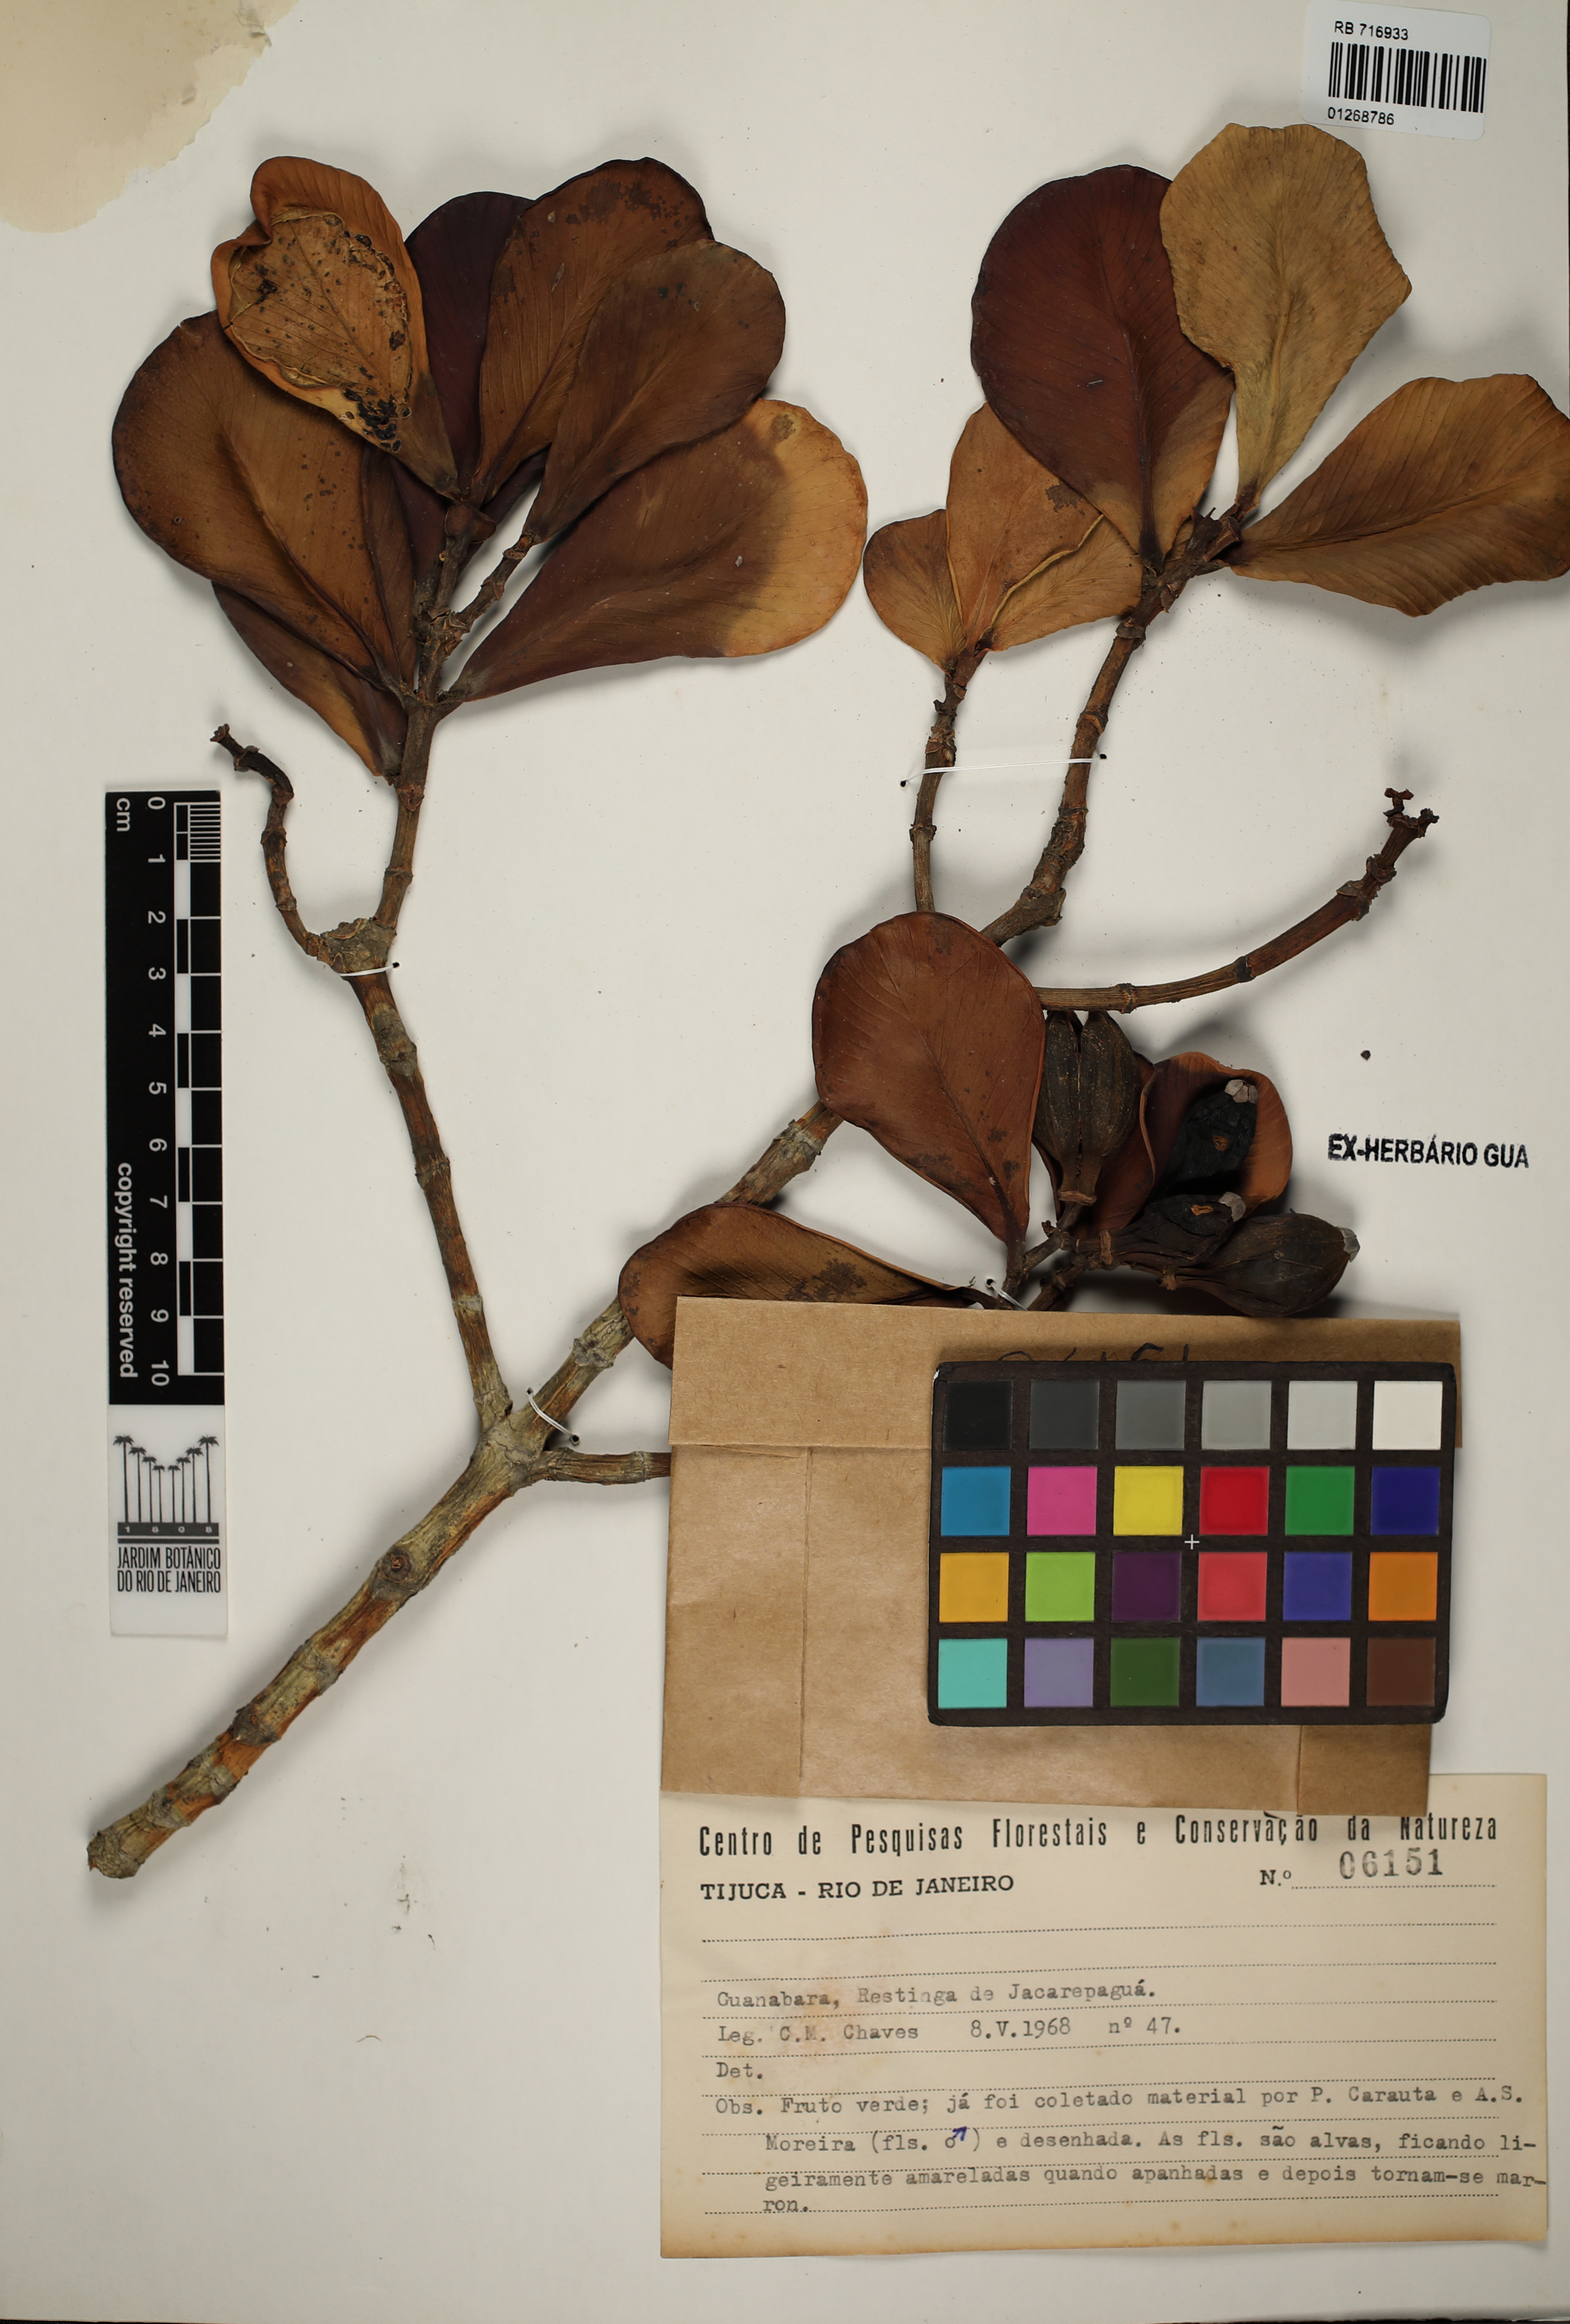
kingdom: Plantae
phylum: Tracheophyta
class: Magnoliopsida
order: Malpighiales
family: Clusiaceae
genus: Clusia
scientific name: Clusia fluminensis
